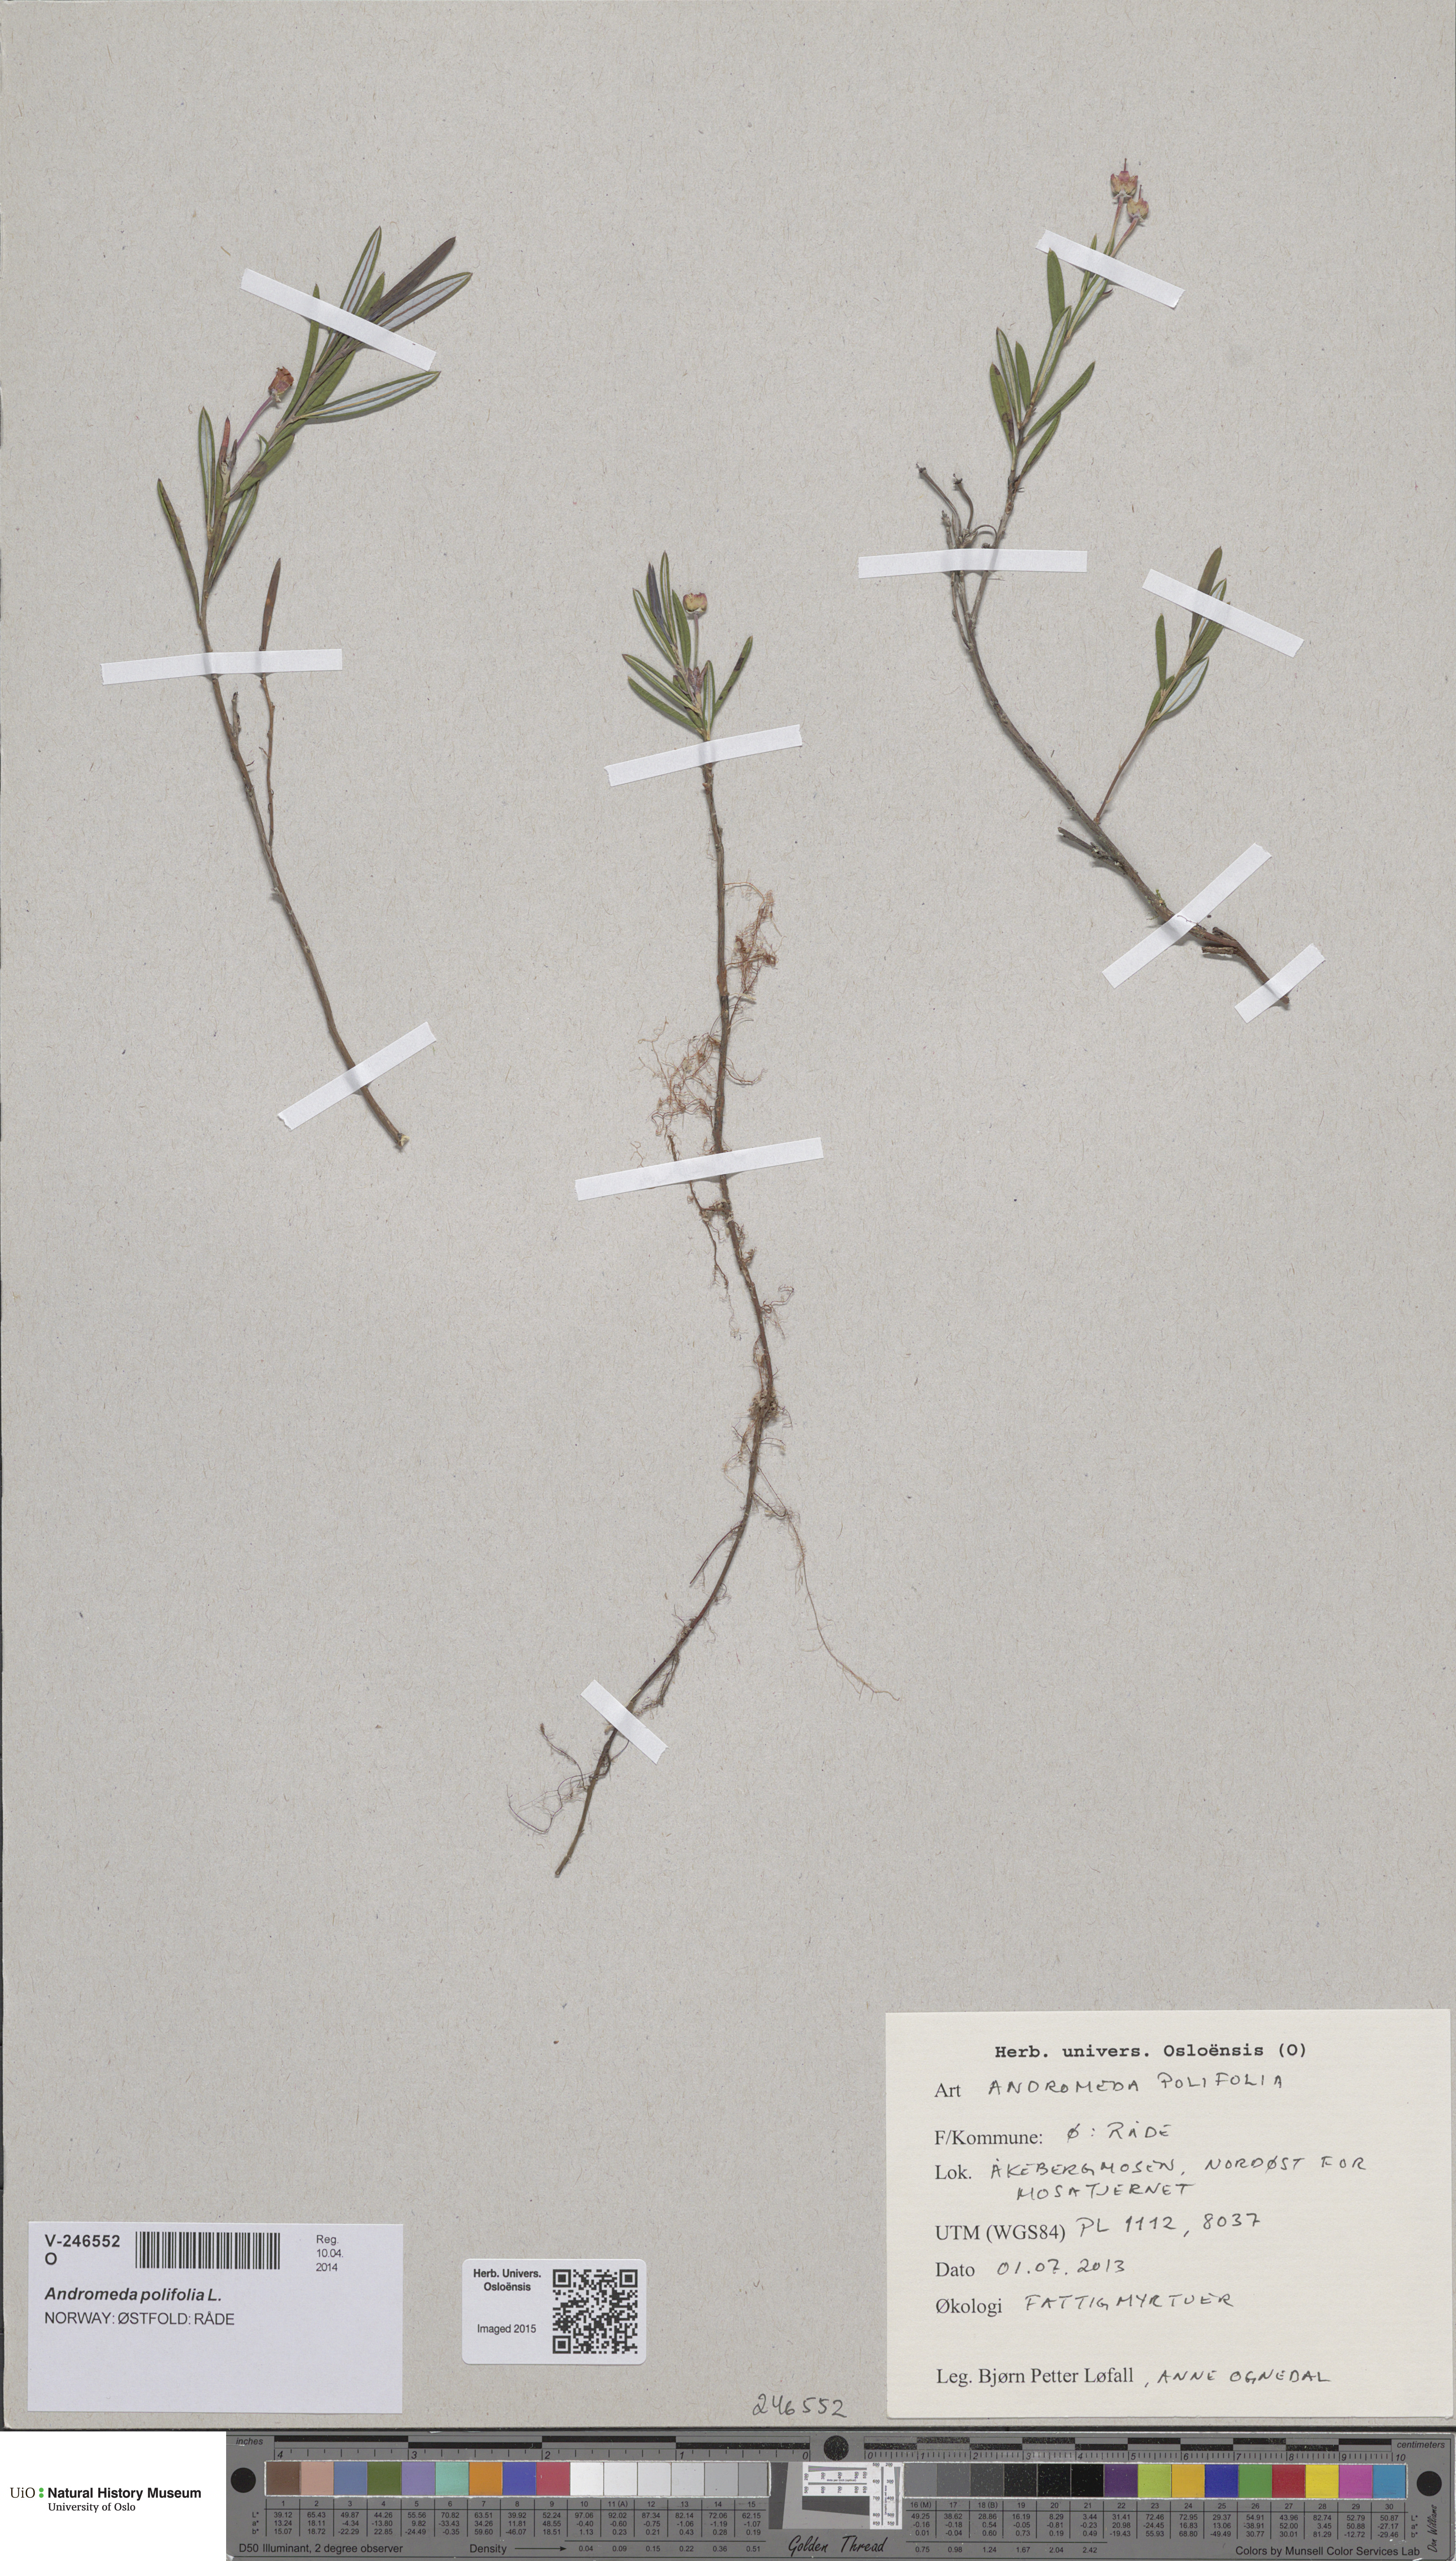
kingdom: Plantae
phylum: Tracheophyta
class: Magnoliopsida
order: Ericales
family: Ericaceae
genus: Andromeda
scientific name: Andromeda polifolia
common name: Bog-rosemary
